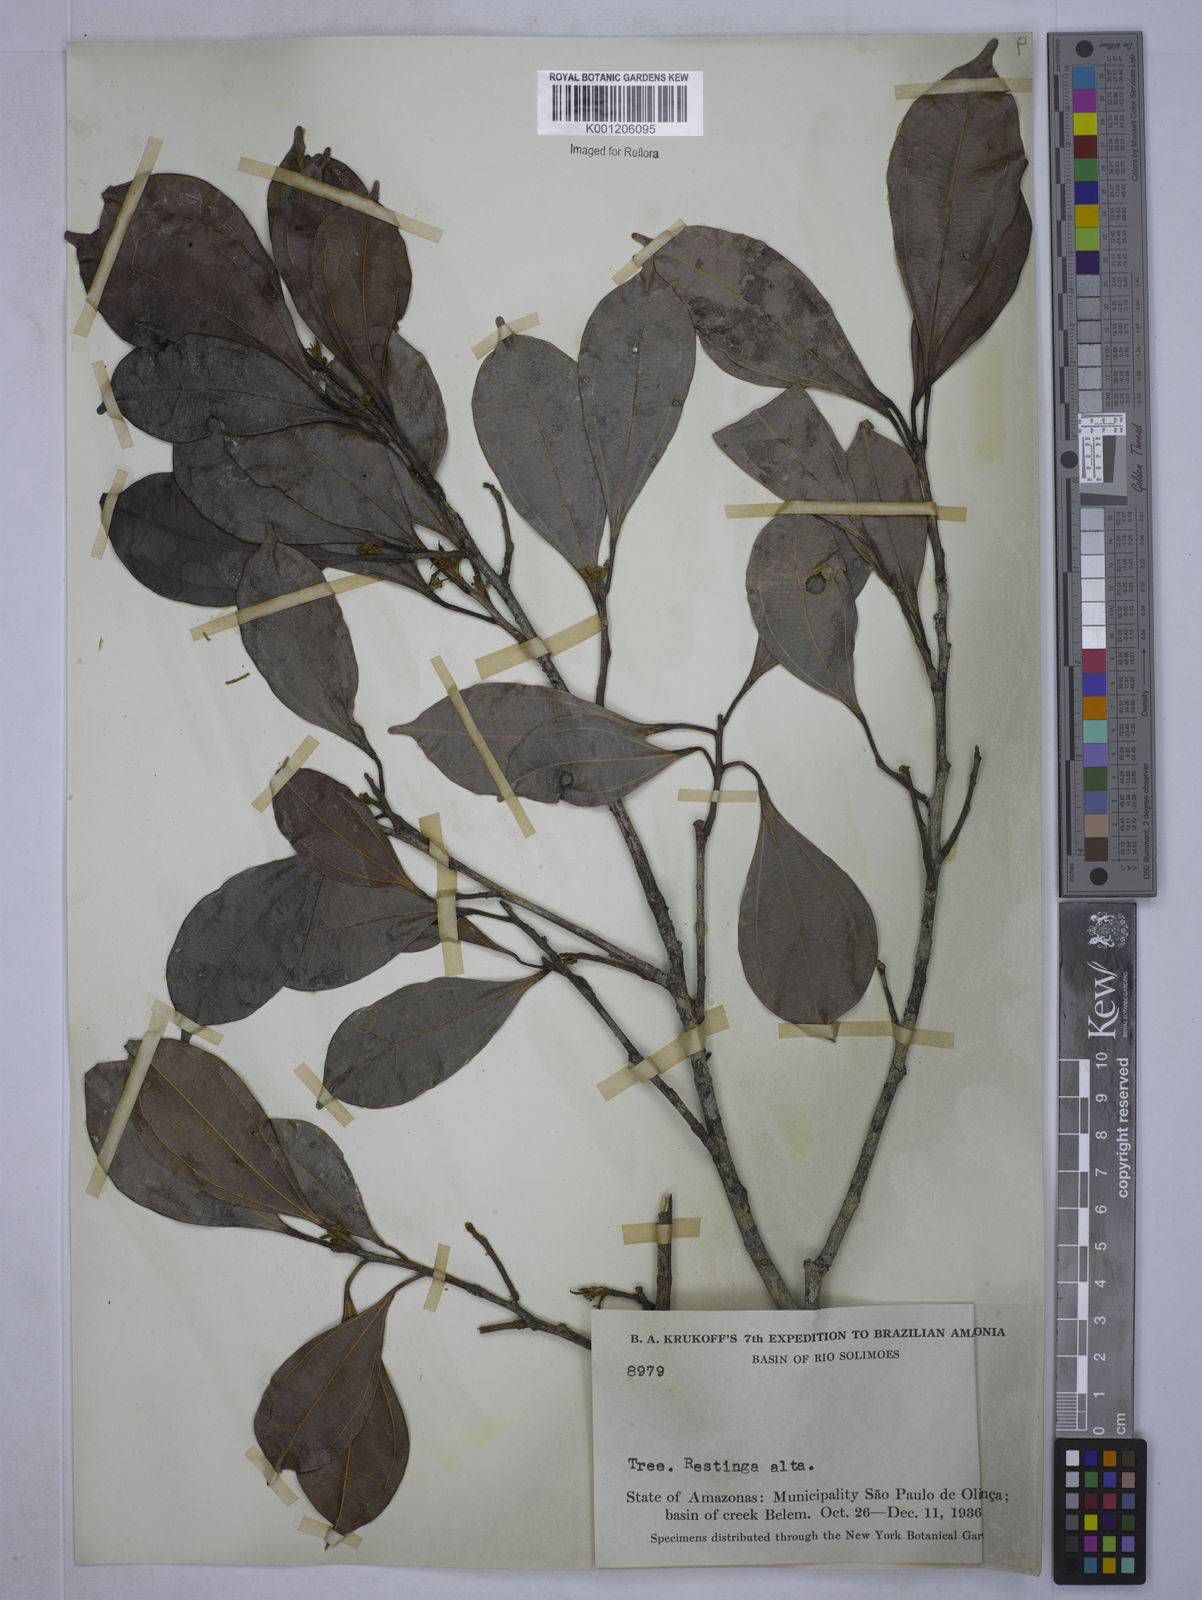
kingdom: Plantae
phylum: Tracheophyta
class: Magnoliopsida
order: Malpighiales
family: Euphorbiaceae
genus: Alchorneopsis
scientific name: Alchorneopsis
